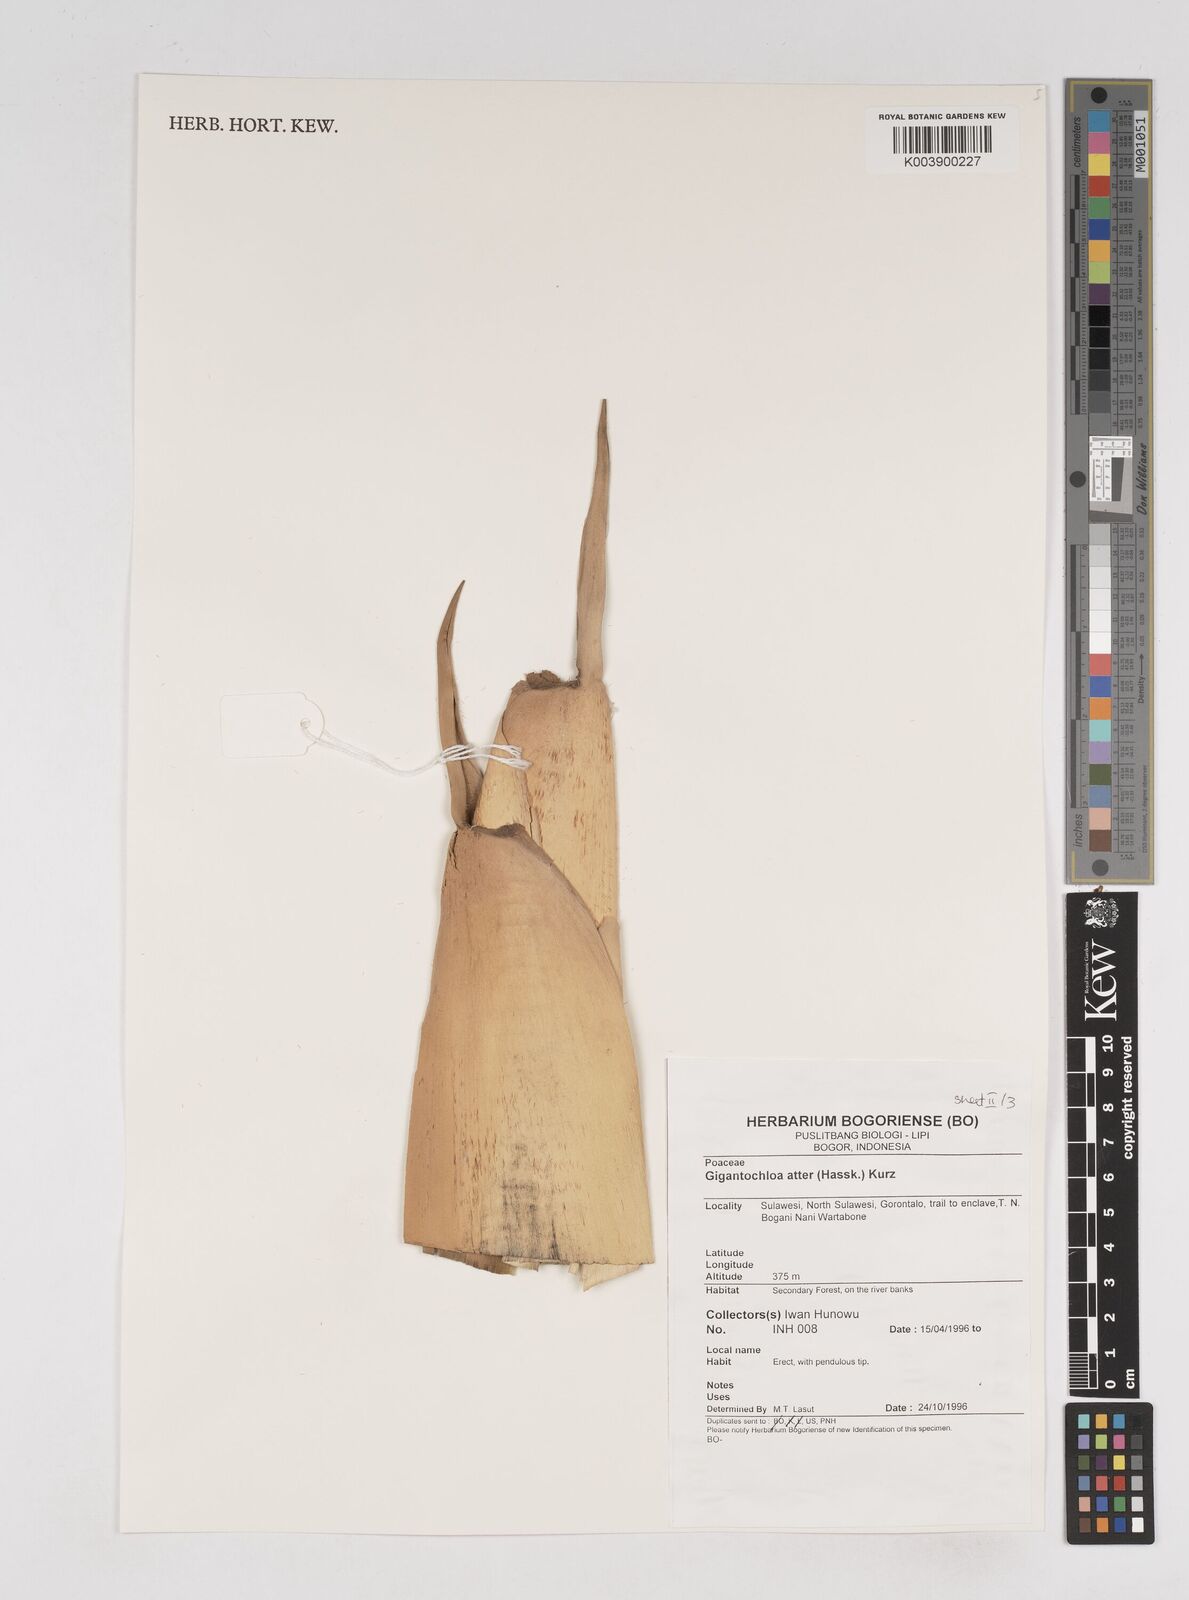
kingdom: Plantae
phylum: Tracheophyta
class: Liliopsida
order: Poales
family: Poaceae
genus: Gigantochloa
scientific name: Gigantochloa atter
